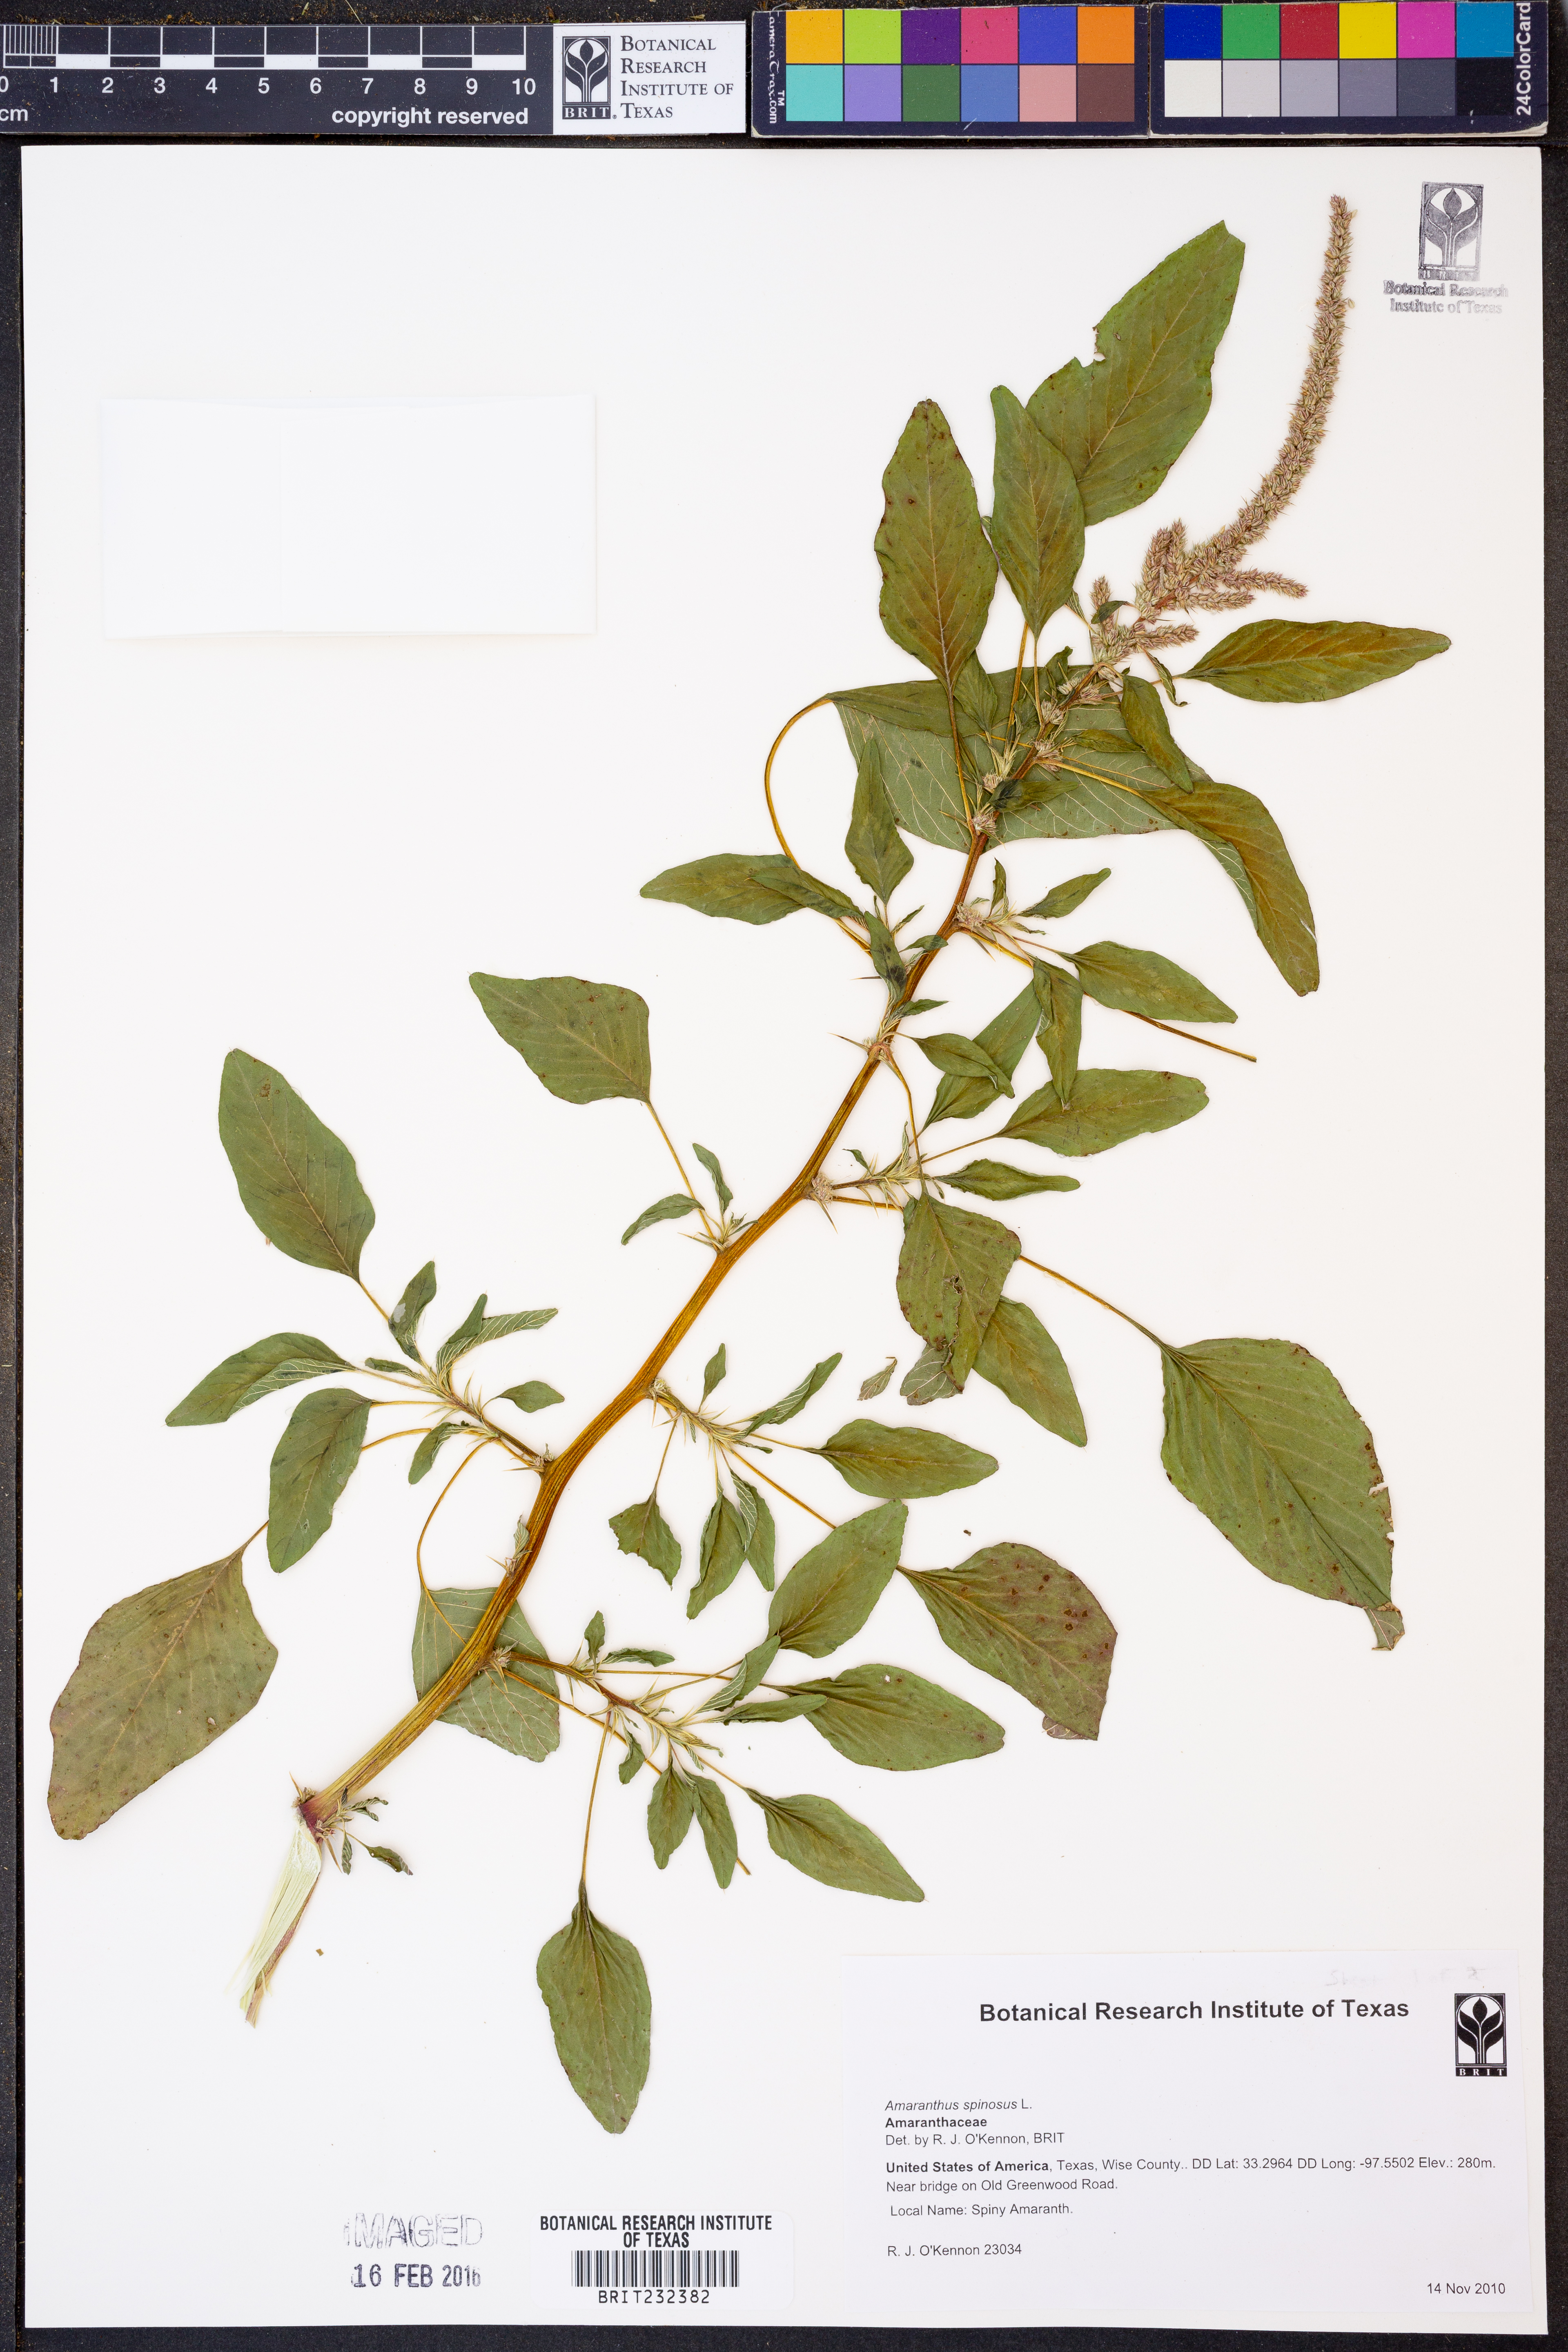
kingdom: Plantae
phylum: Tracheophyta
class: Magnoliopsida
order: Caryophyllales
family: Amaranthaceae
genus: Amaranthus
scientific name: Amaranthus spinosus
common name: Spiny amaranth
